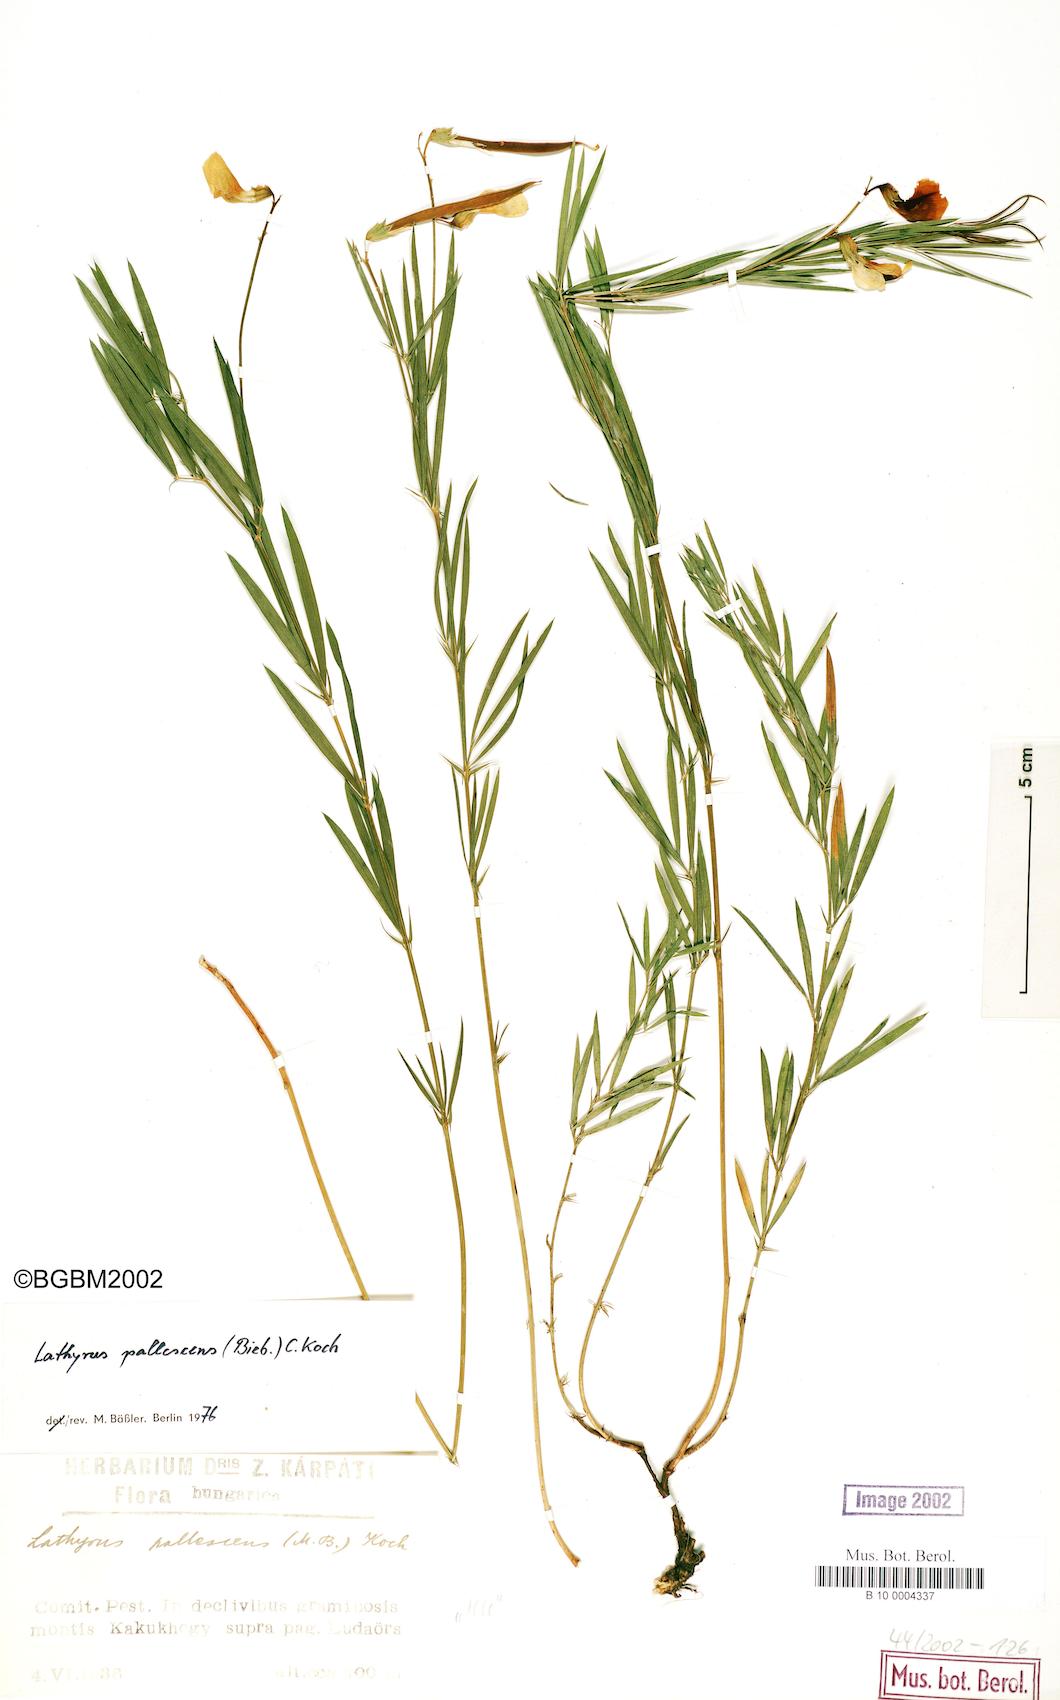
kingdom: Plantae
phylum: Tracheophyta
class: Magnoliopsida
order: Fabales
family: Fabaceae
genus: Lathyrus
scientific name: Lathyrus pallescens
